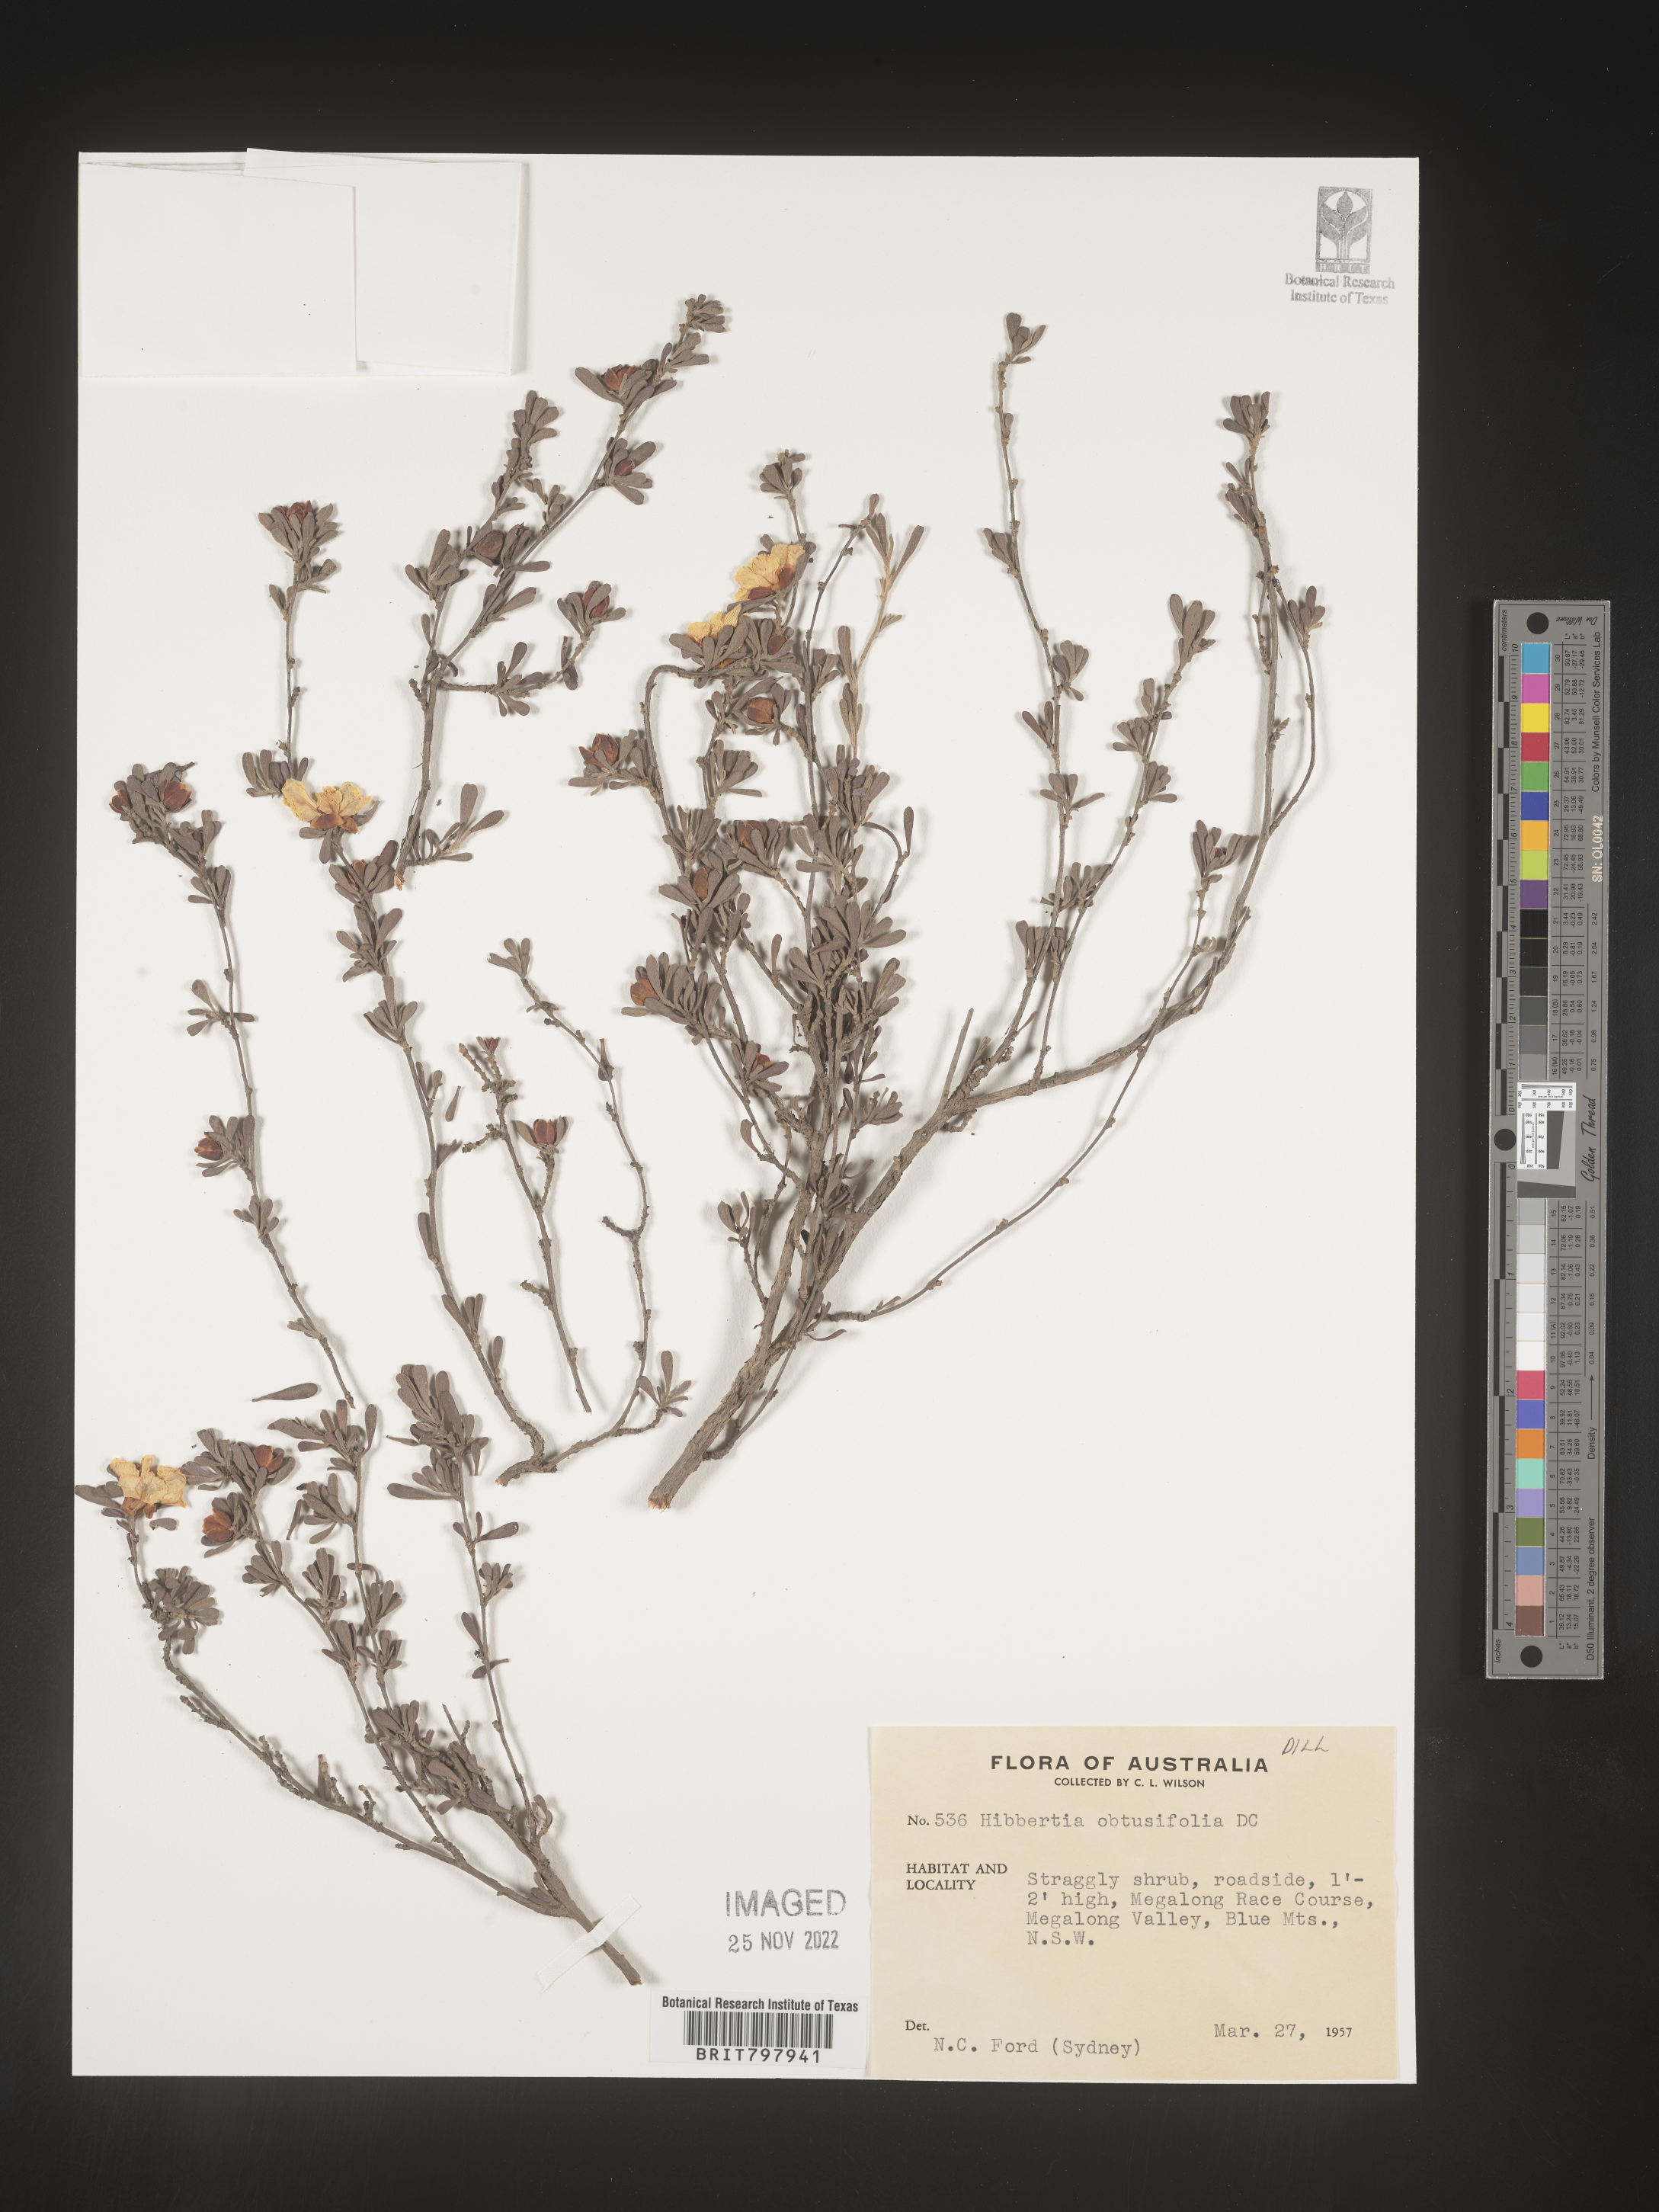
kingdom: Plantae
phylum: Tracheophyta
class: Magnoliopsida
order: Dilleniales
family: Dilleniaceae
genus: Hibbertia
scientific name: Hibbertia
